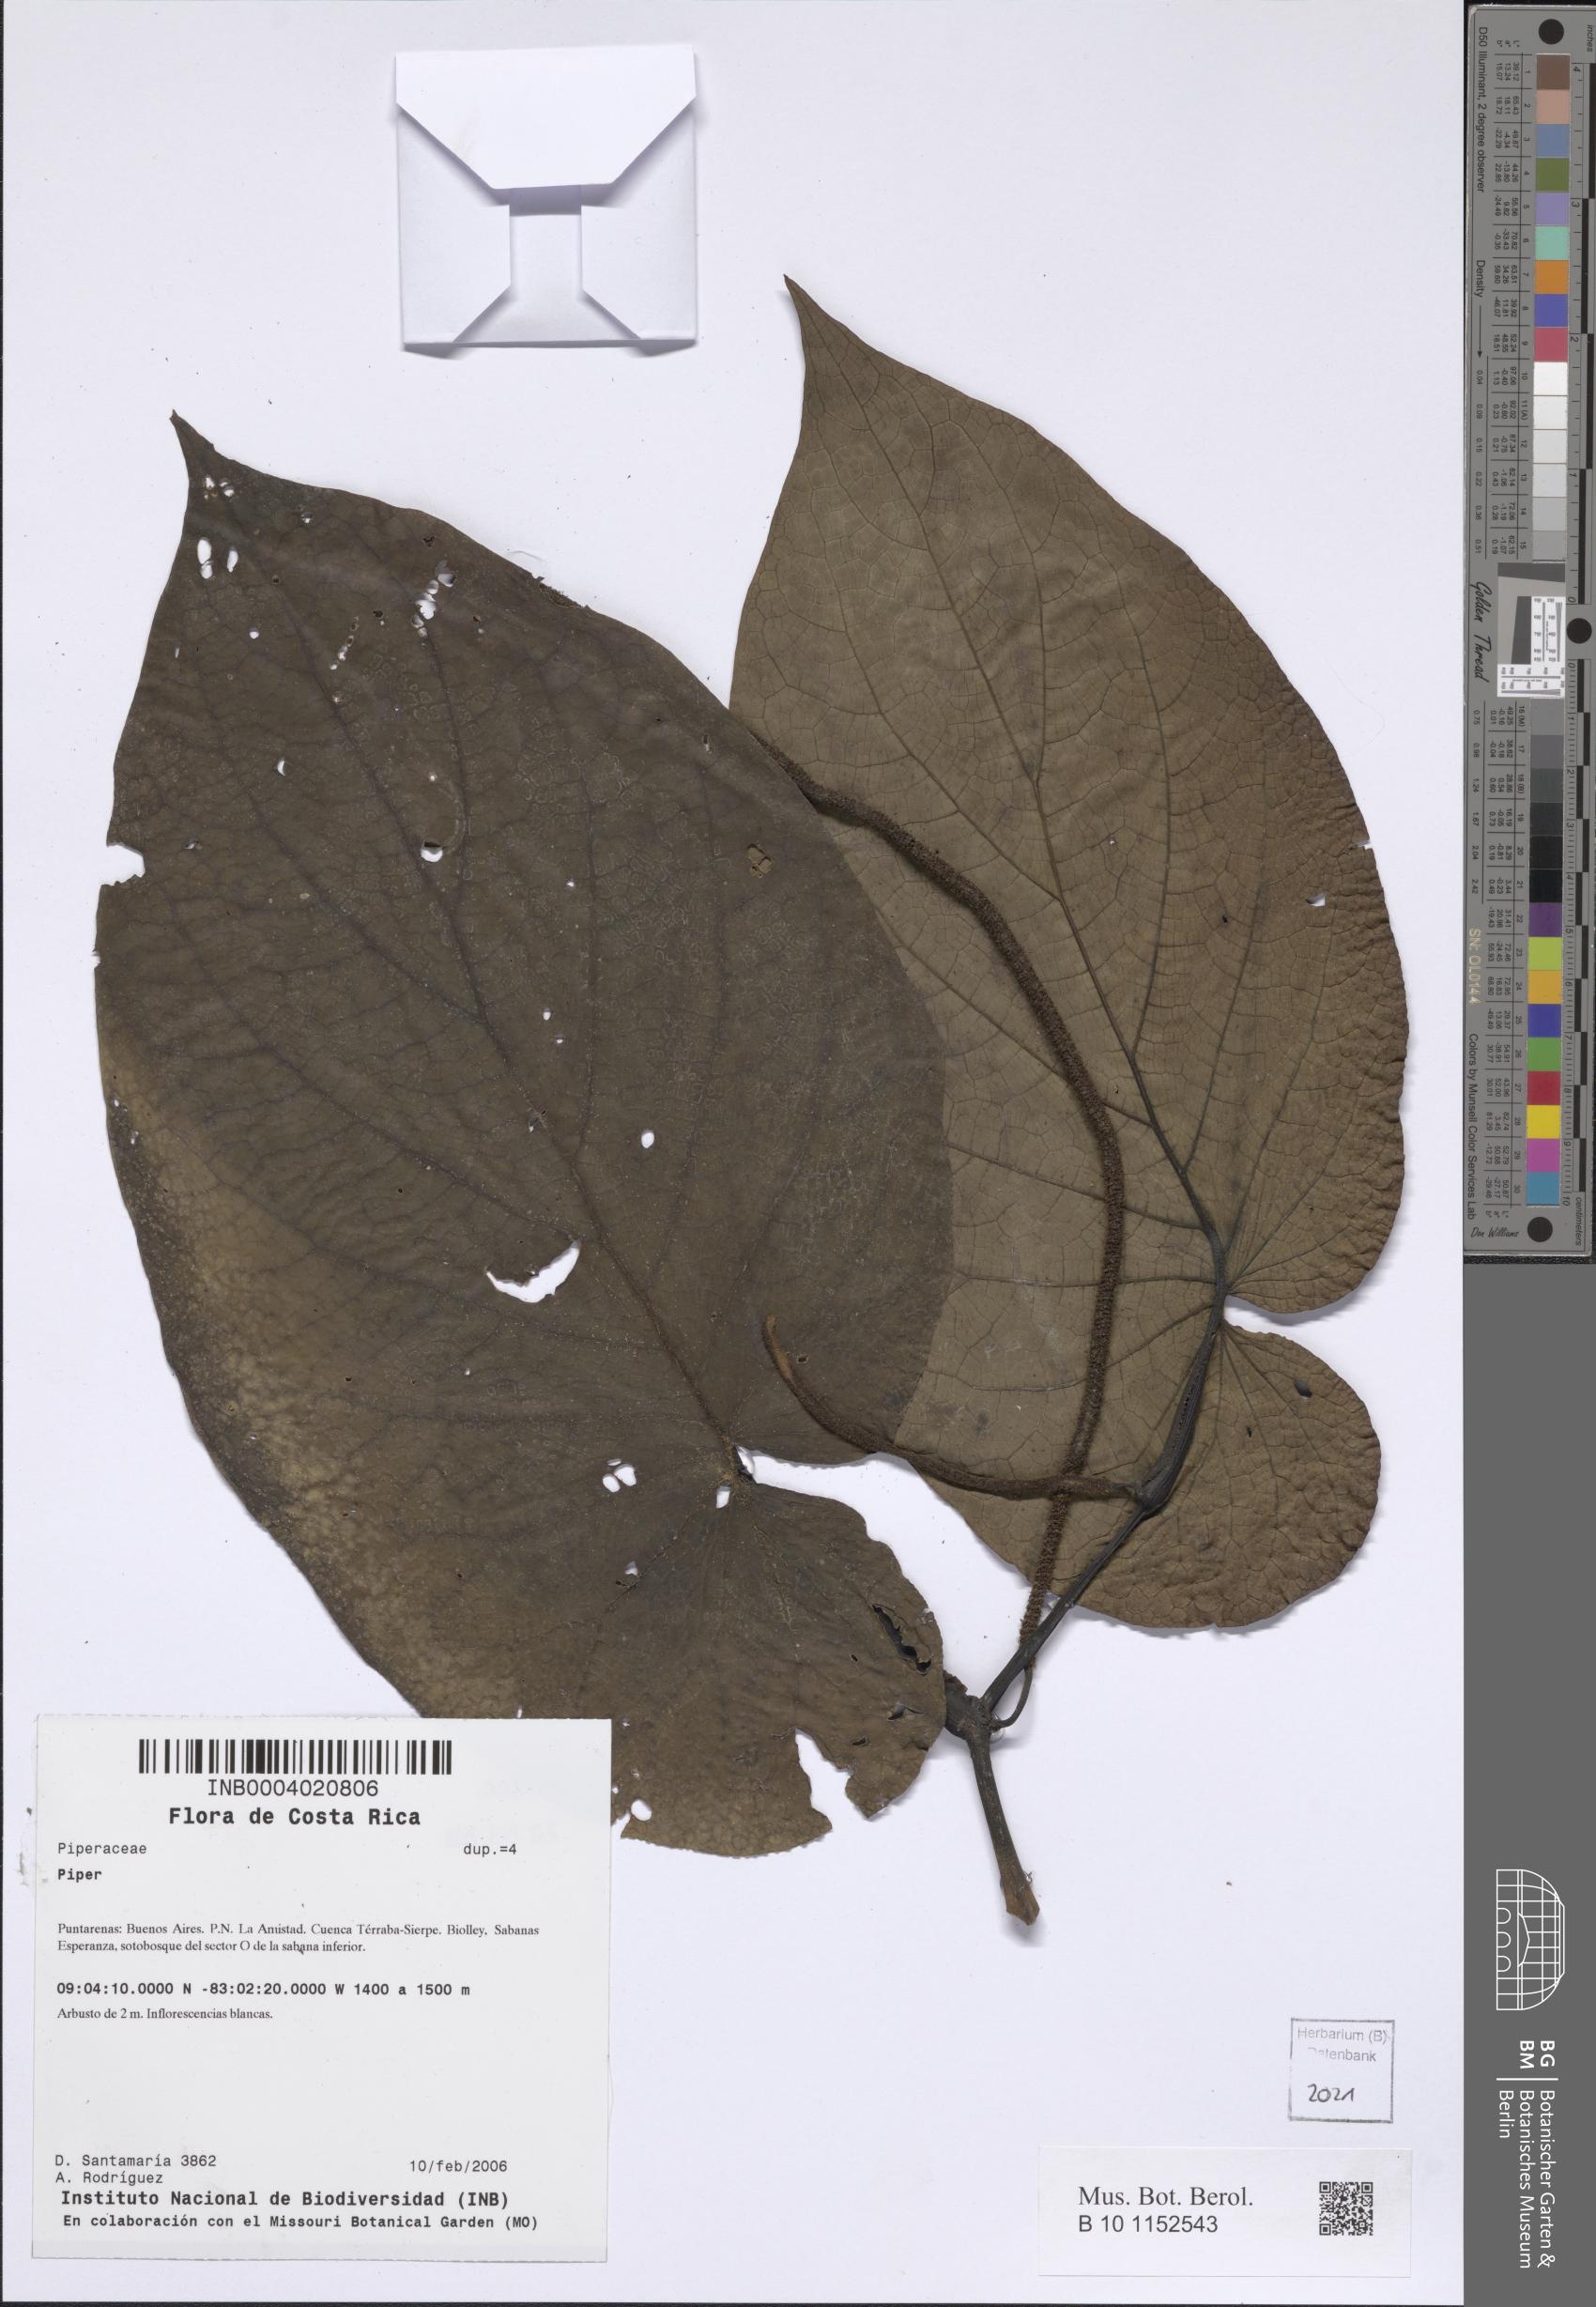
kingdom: Plantae
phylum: Tracheophyta
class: Magnoliopsida
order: Piperales
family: Piperaceae
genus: Piper
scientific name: Piper
